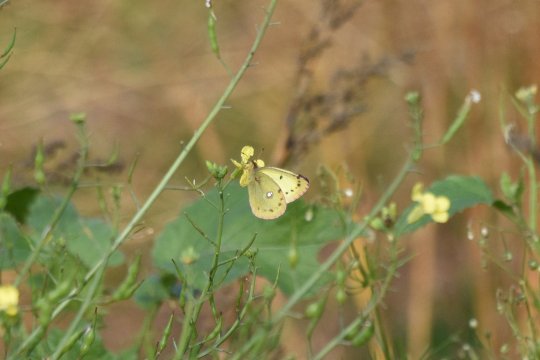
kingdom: Animalia
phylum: Arthropoda
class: Insecta
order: Lepidoptera
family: Pieridae
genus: Colias
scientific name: Colias philodice
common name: Clouded Sulphur
